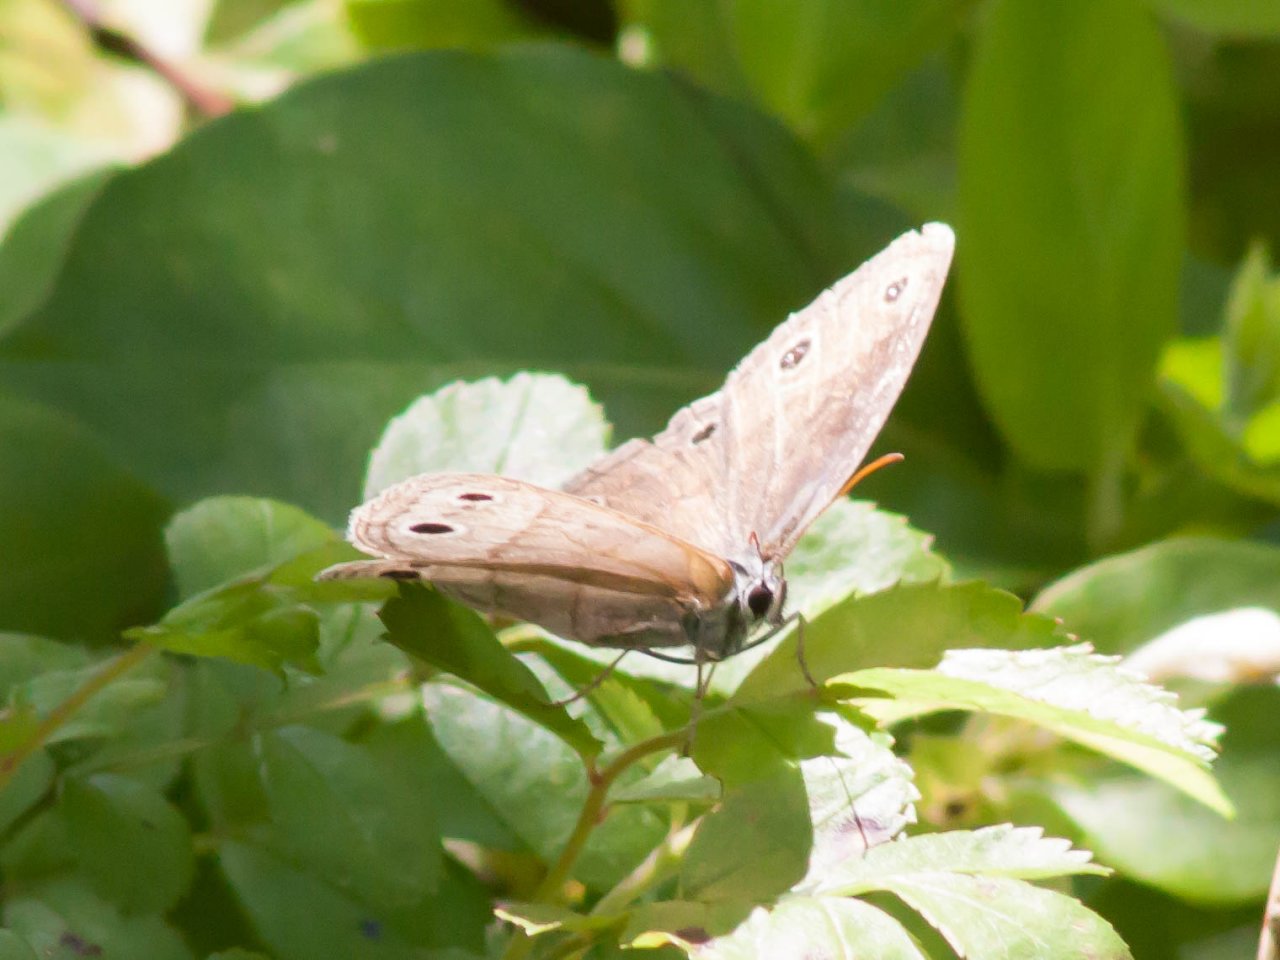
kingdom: Animalia
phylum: Arthropoda
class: Insecta
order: Lepidoptera
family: Nymphalidae
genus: Euptychia
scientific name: Euptychia cymela
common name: Little Wood Satyr
